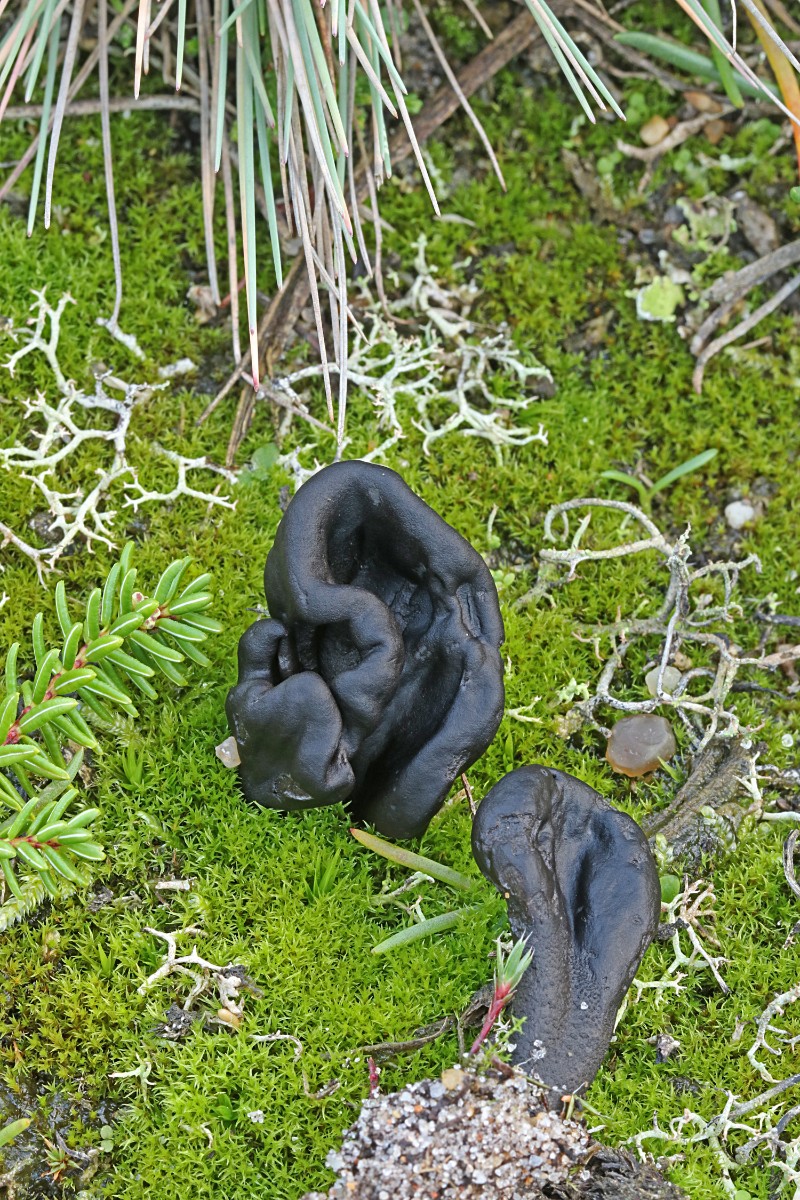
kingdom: Fungi
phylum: Ascomycota
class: Geoglossomycetes
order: Geoglossales
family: Geoglossaceae
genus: Sabuloglossum
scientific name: Sabuloglossum arenarium
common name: klit-jordtunge
